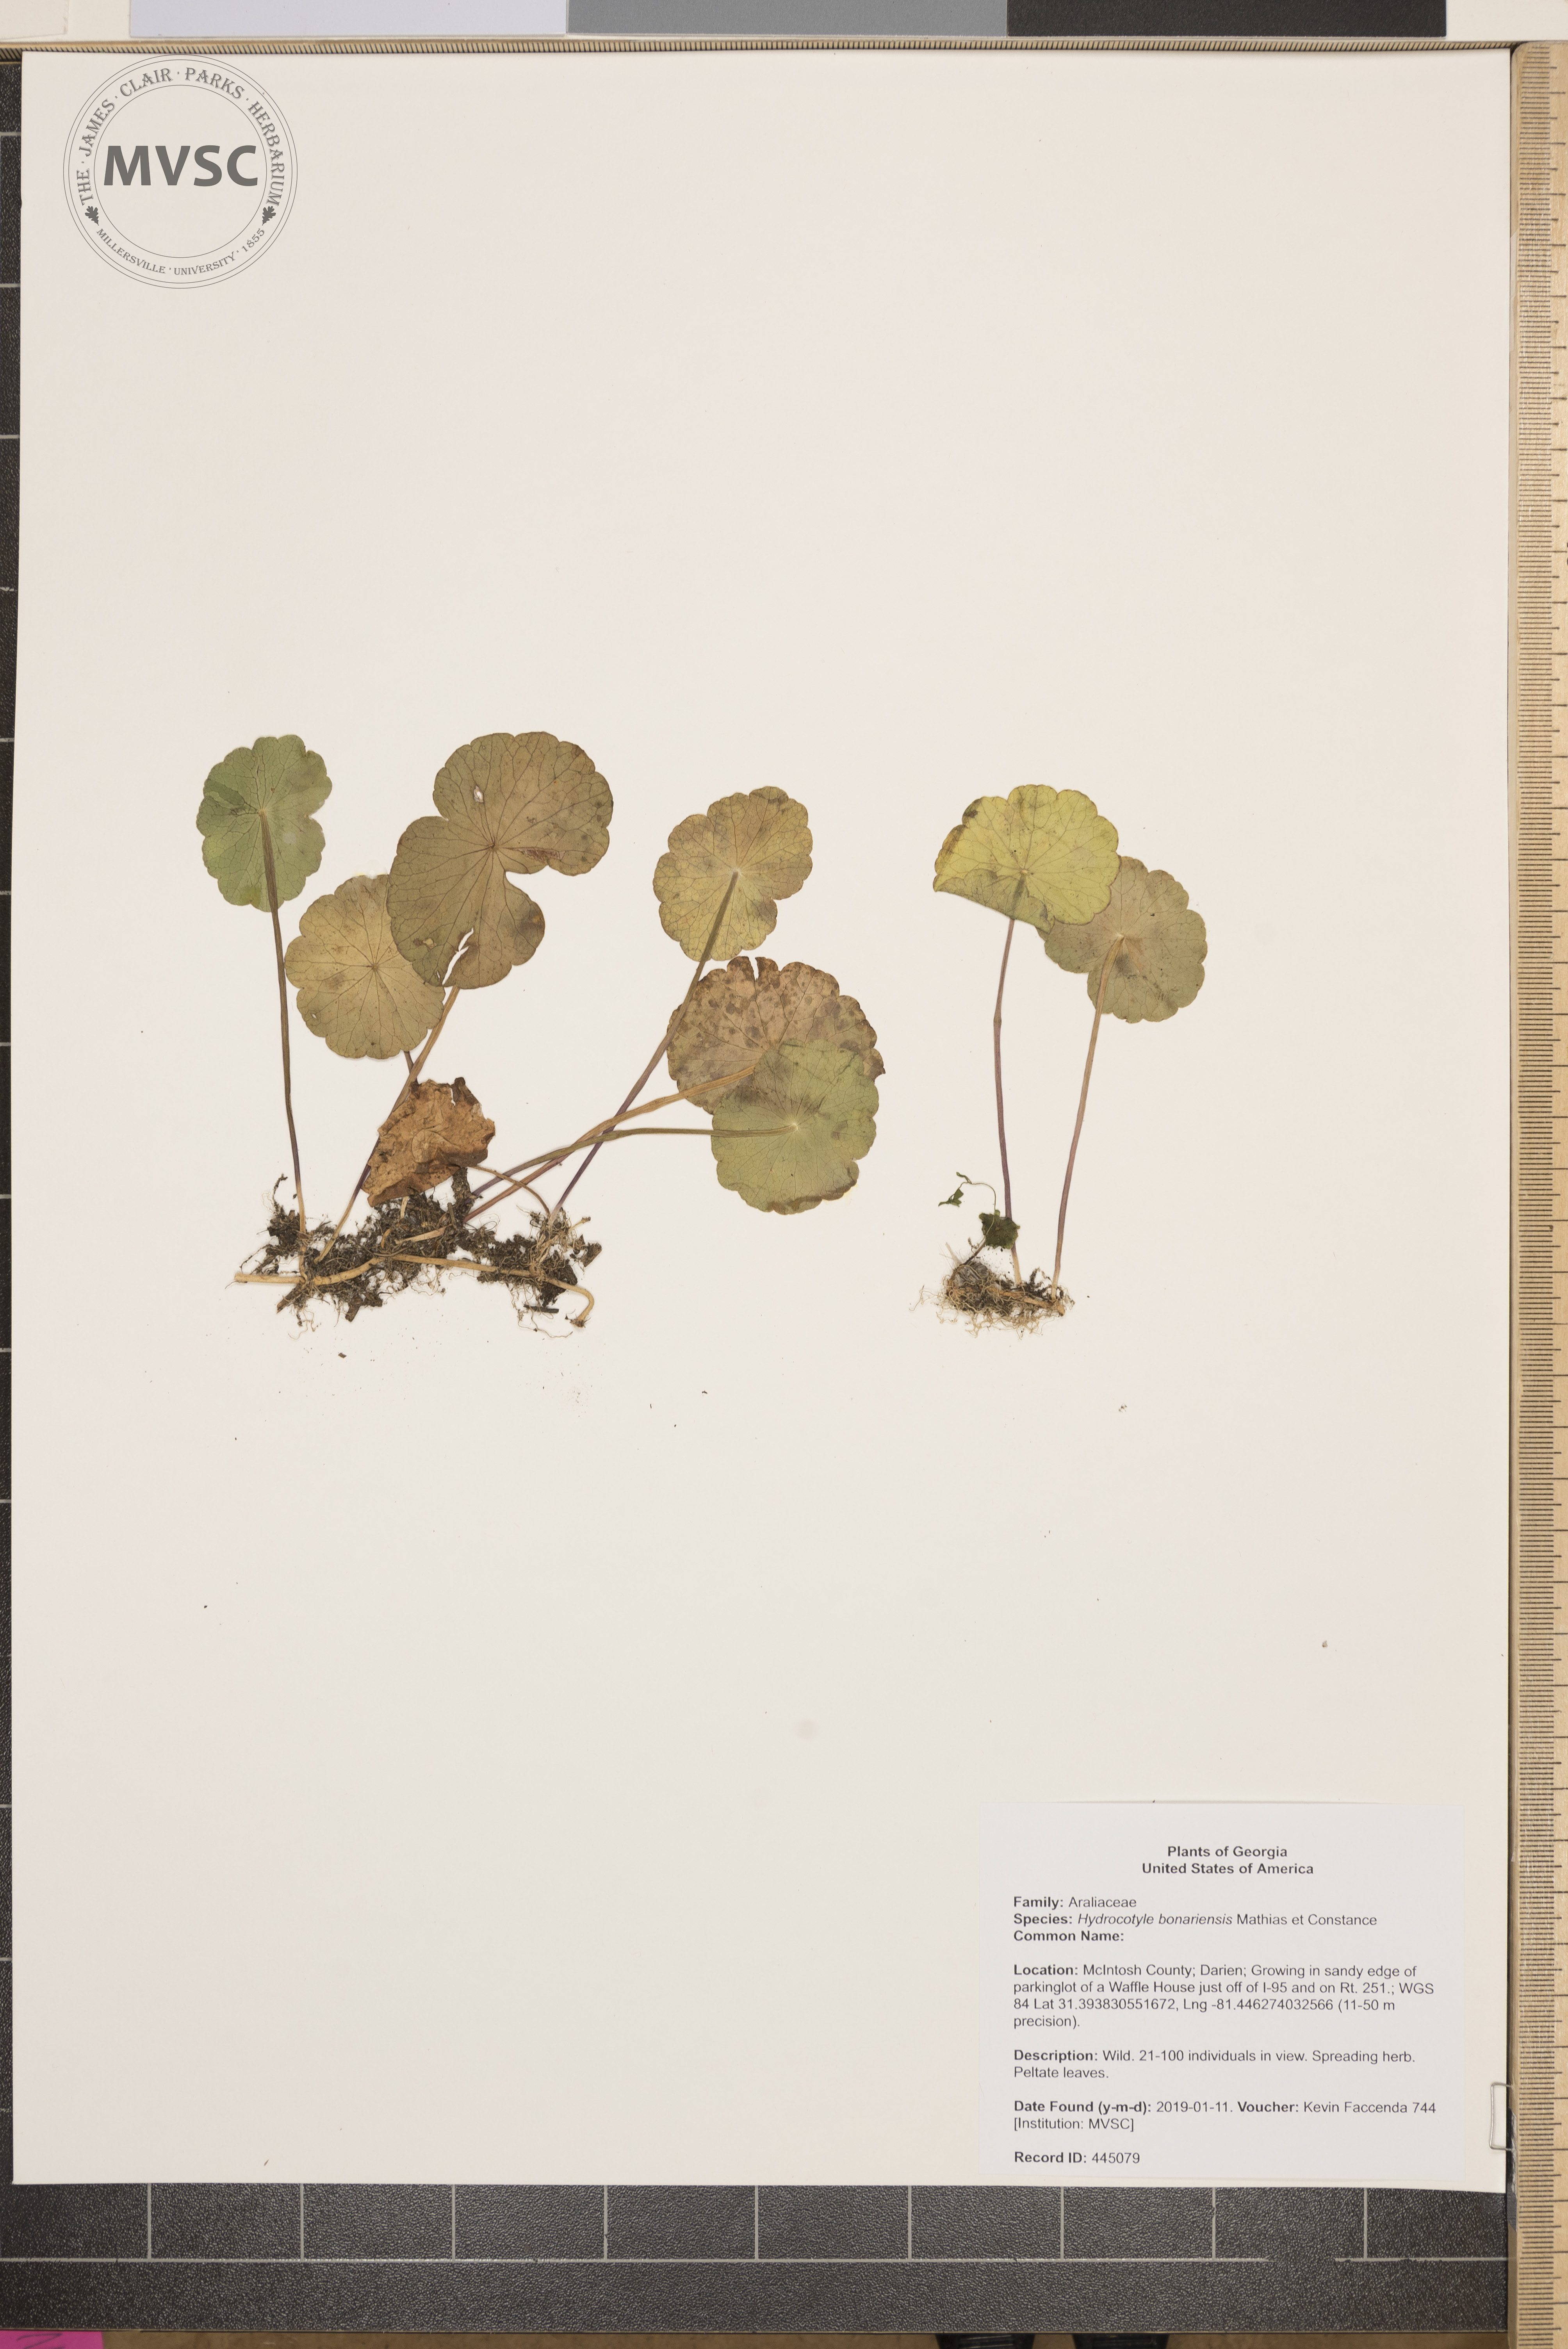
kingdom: Plantae
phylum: Tracheophyta
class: Magnoliopsida
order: Apiales
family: Araliaceae
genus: Hydrocotyle
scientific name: Hydrocotyle bonariensis
